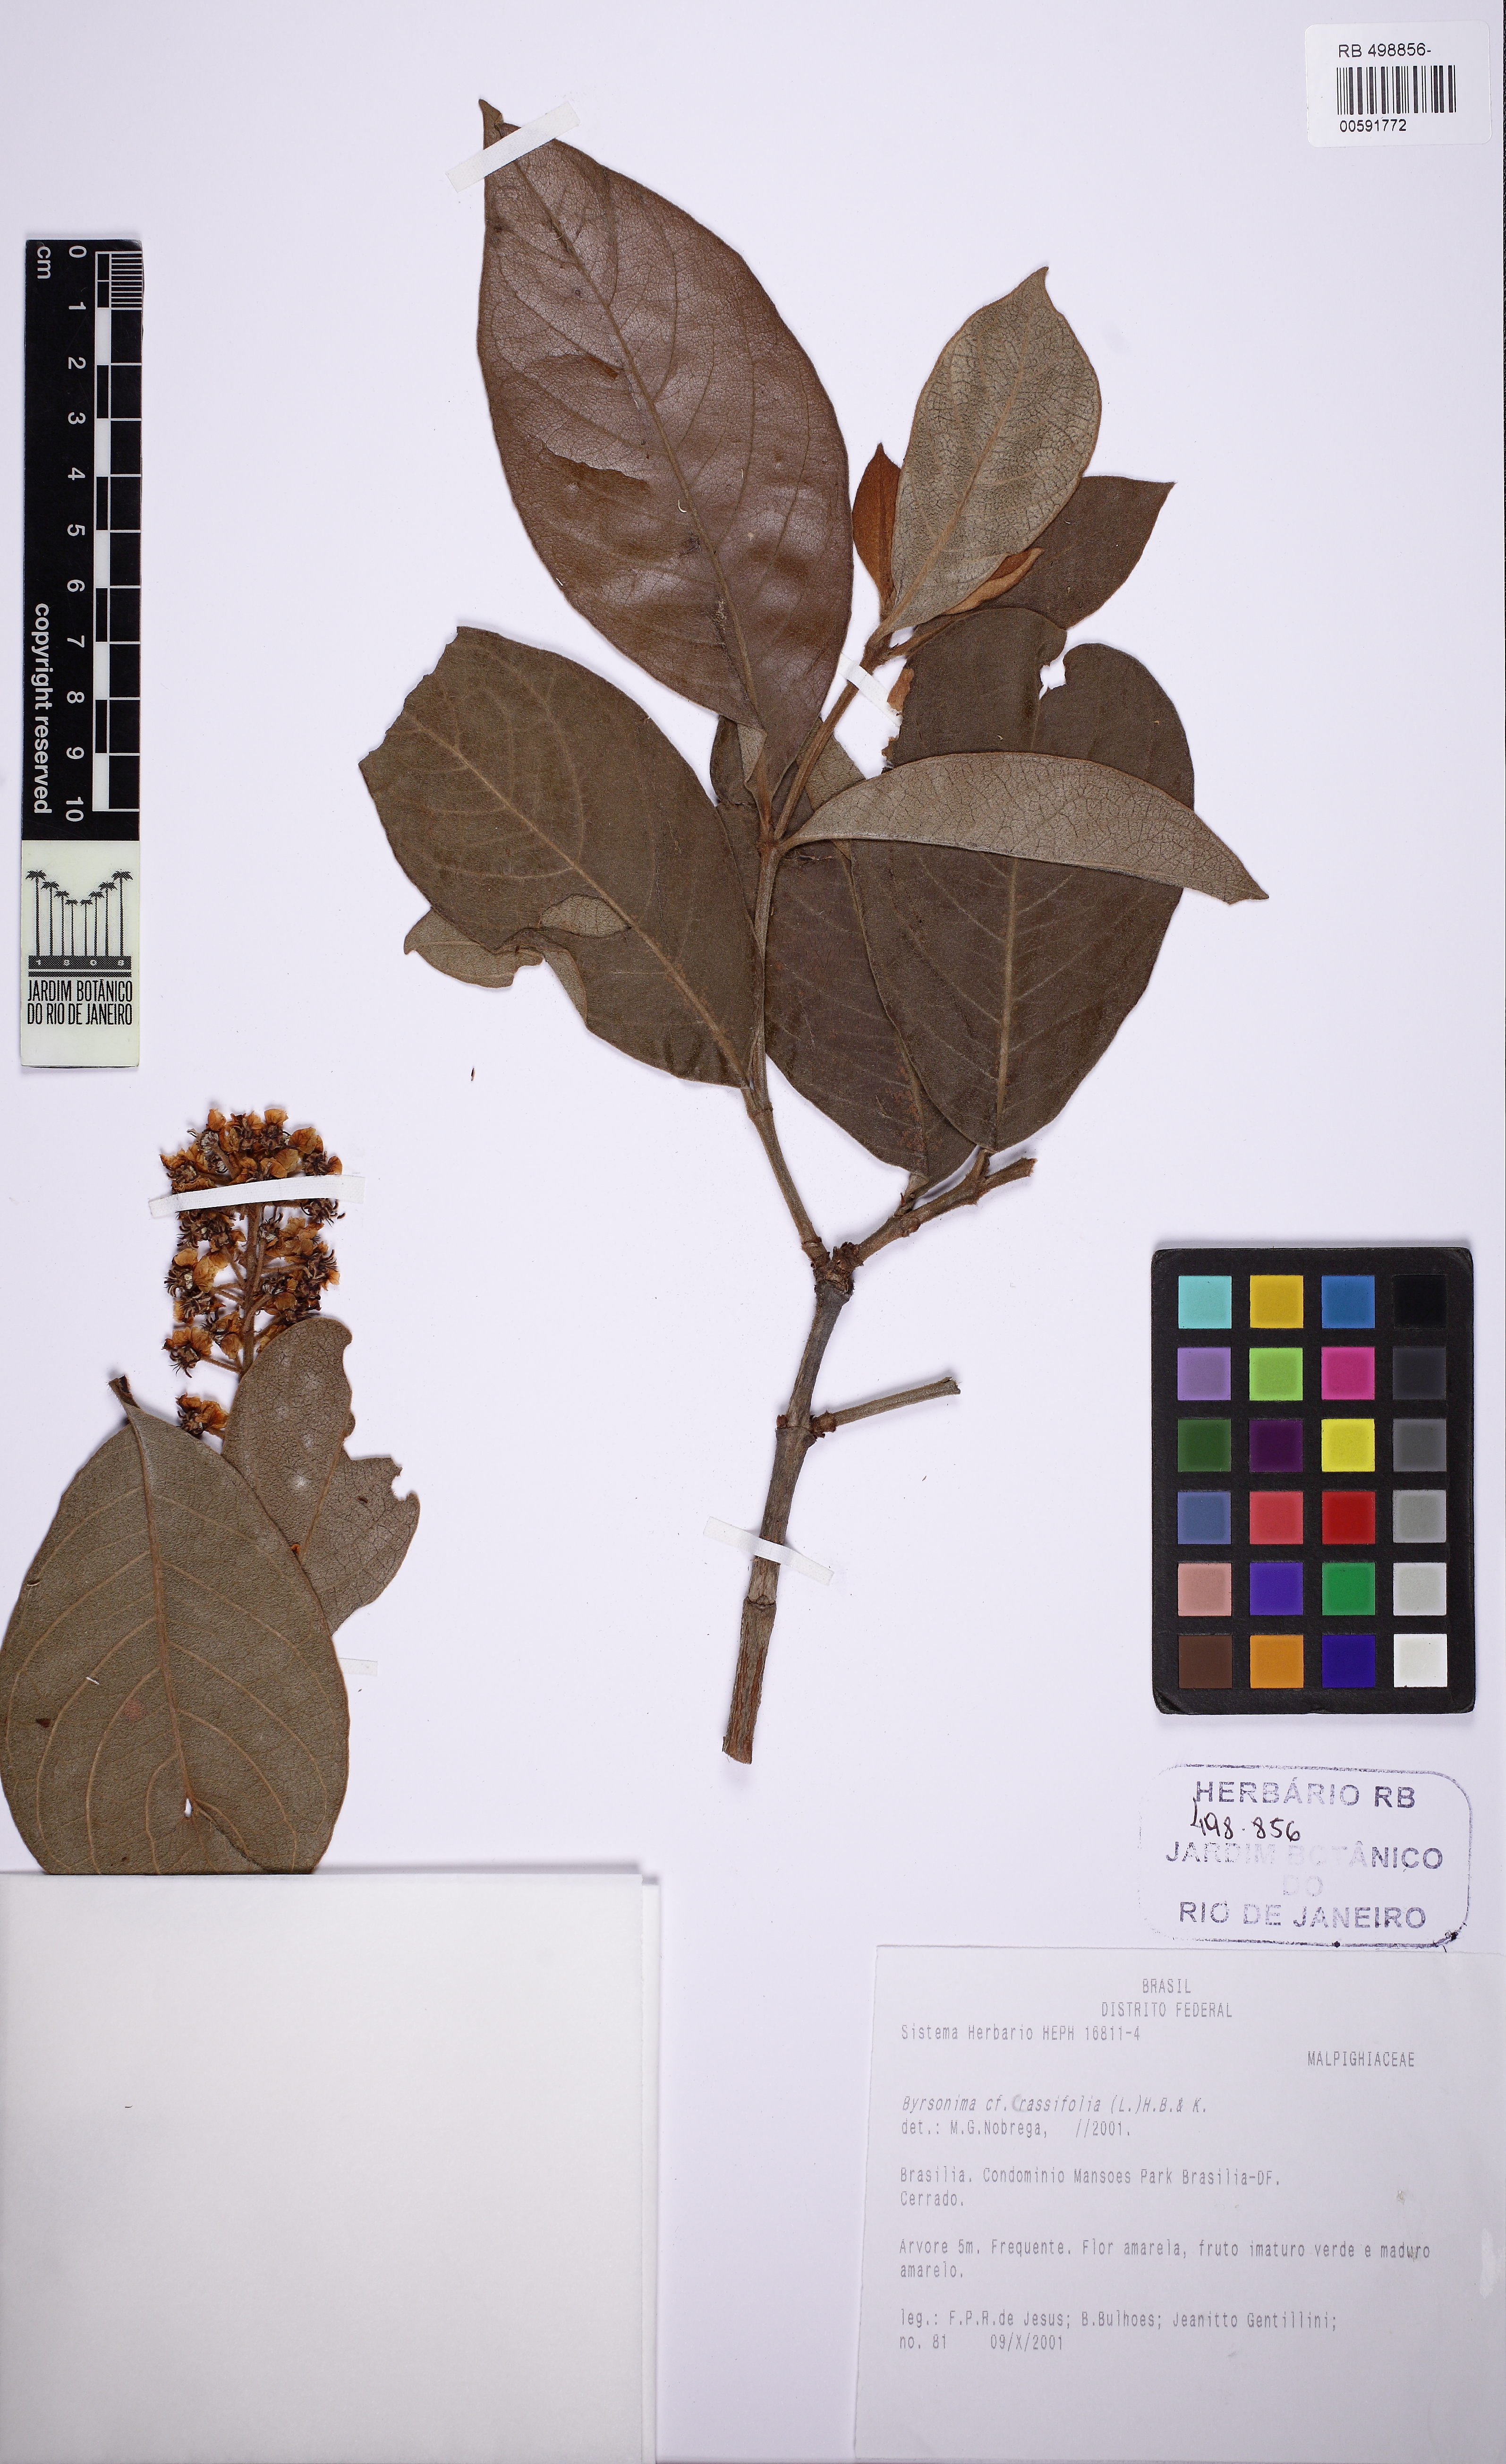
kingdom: Plantae
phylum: Tracheophyta
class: Magnoliopsida
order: Malpighiales
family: Malpighiaceae
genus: Byrsonima
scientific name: Byrsonima crassifolia
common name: Golden spoon
